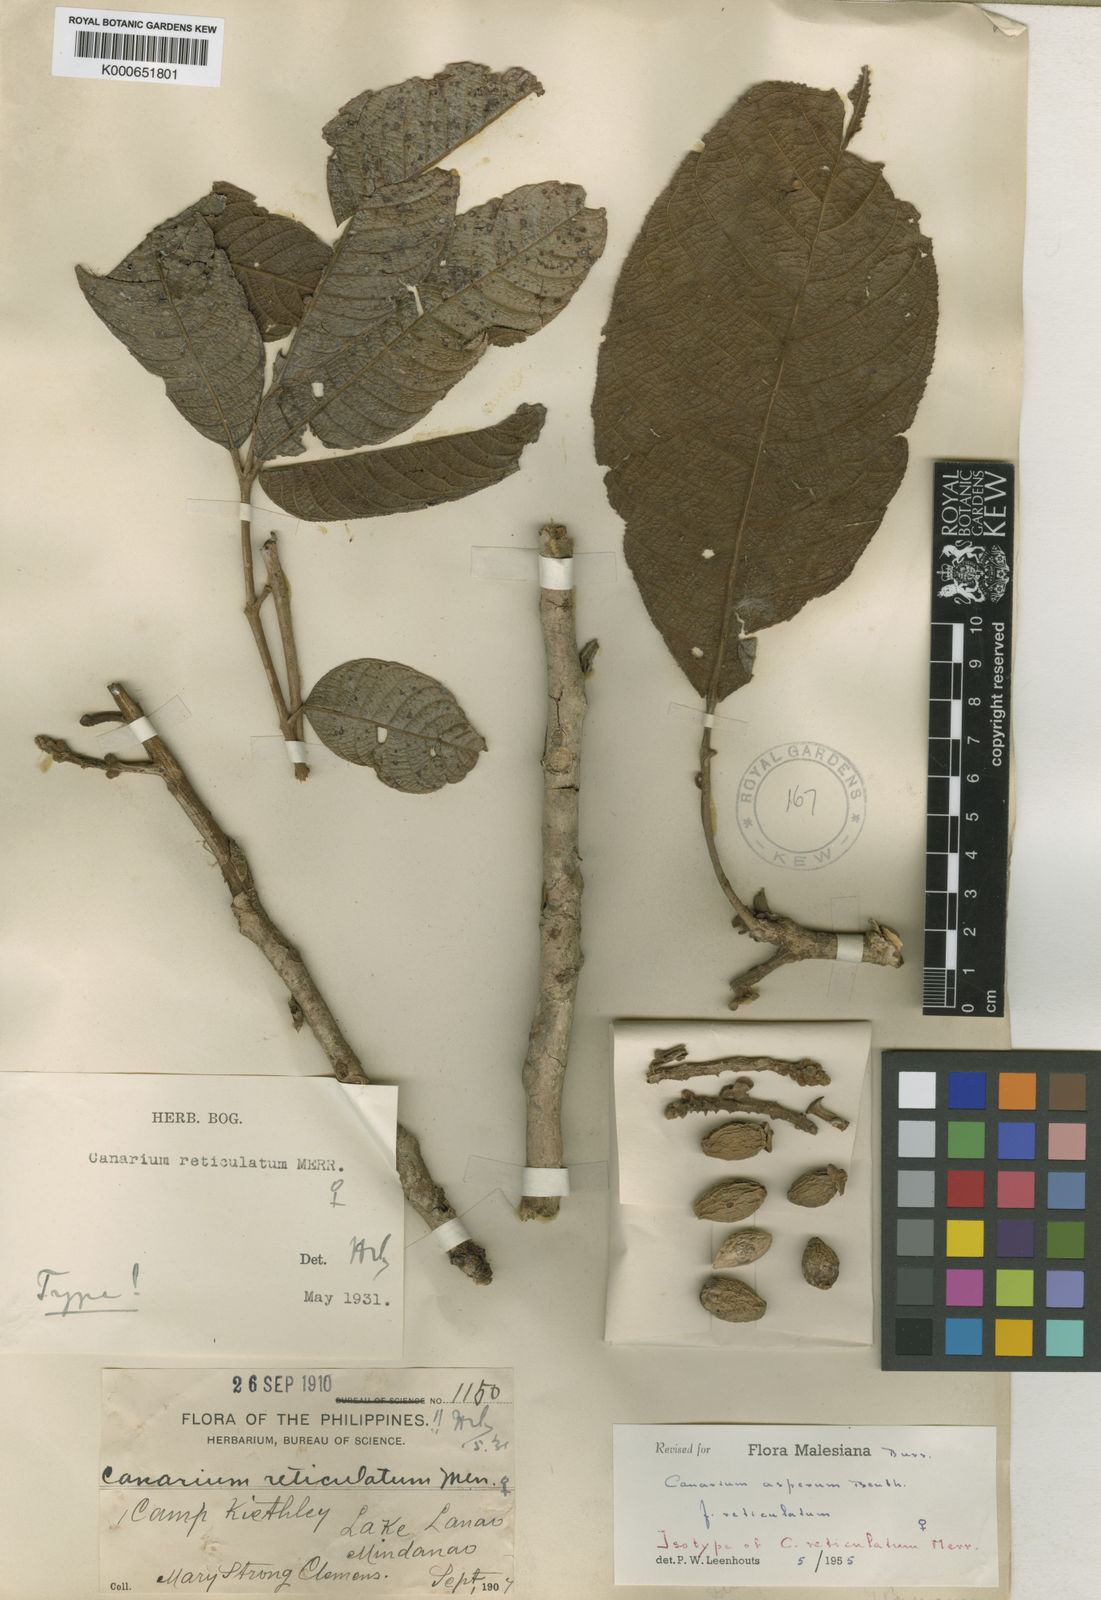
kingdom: Plantae
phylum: Tracheophyta
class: Magnoliopsida
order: Sapindales
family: Burseraceae
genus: Canarium
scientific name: Canarium asperum
